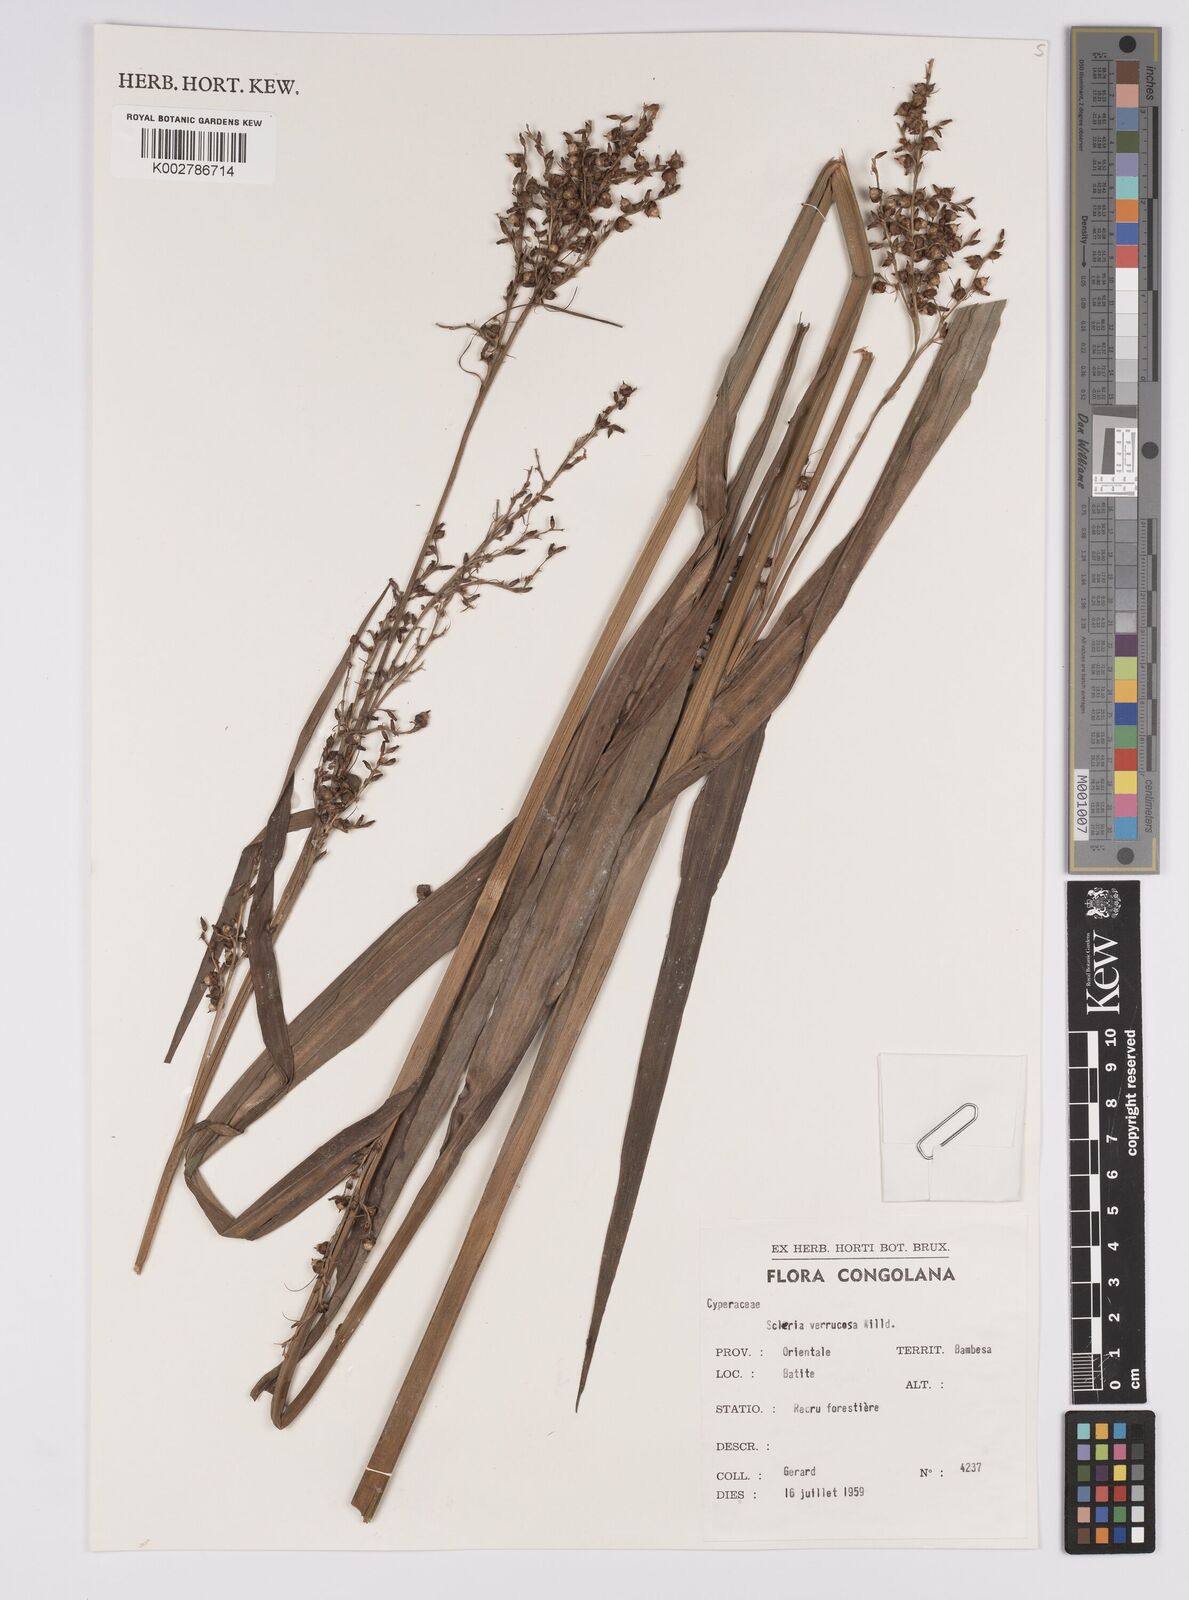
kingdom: Plantae
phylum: Tracheophyta
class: Liliopsida
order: Poales
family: Cyperaceae
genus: Scleria
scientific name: Scleria verrucosa
